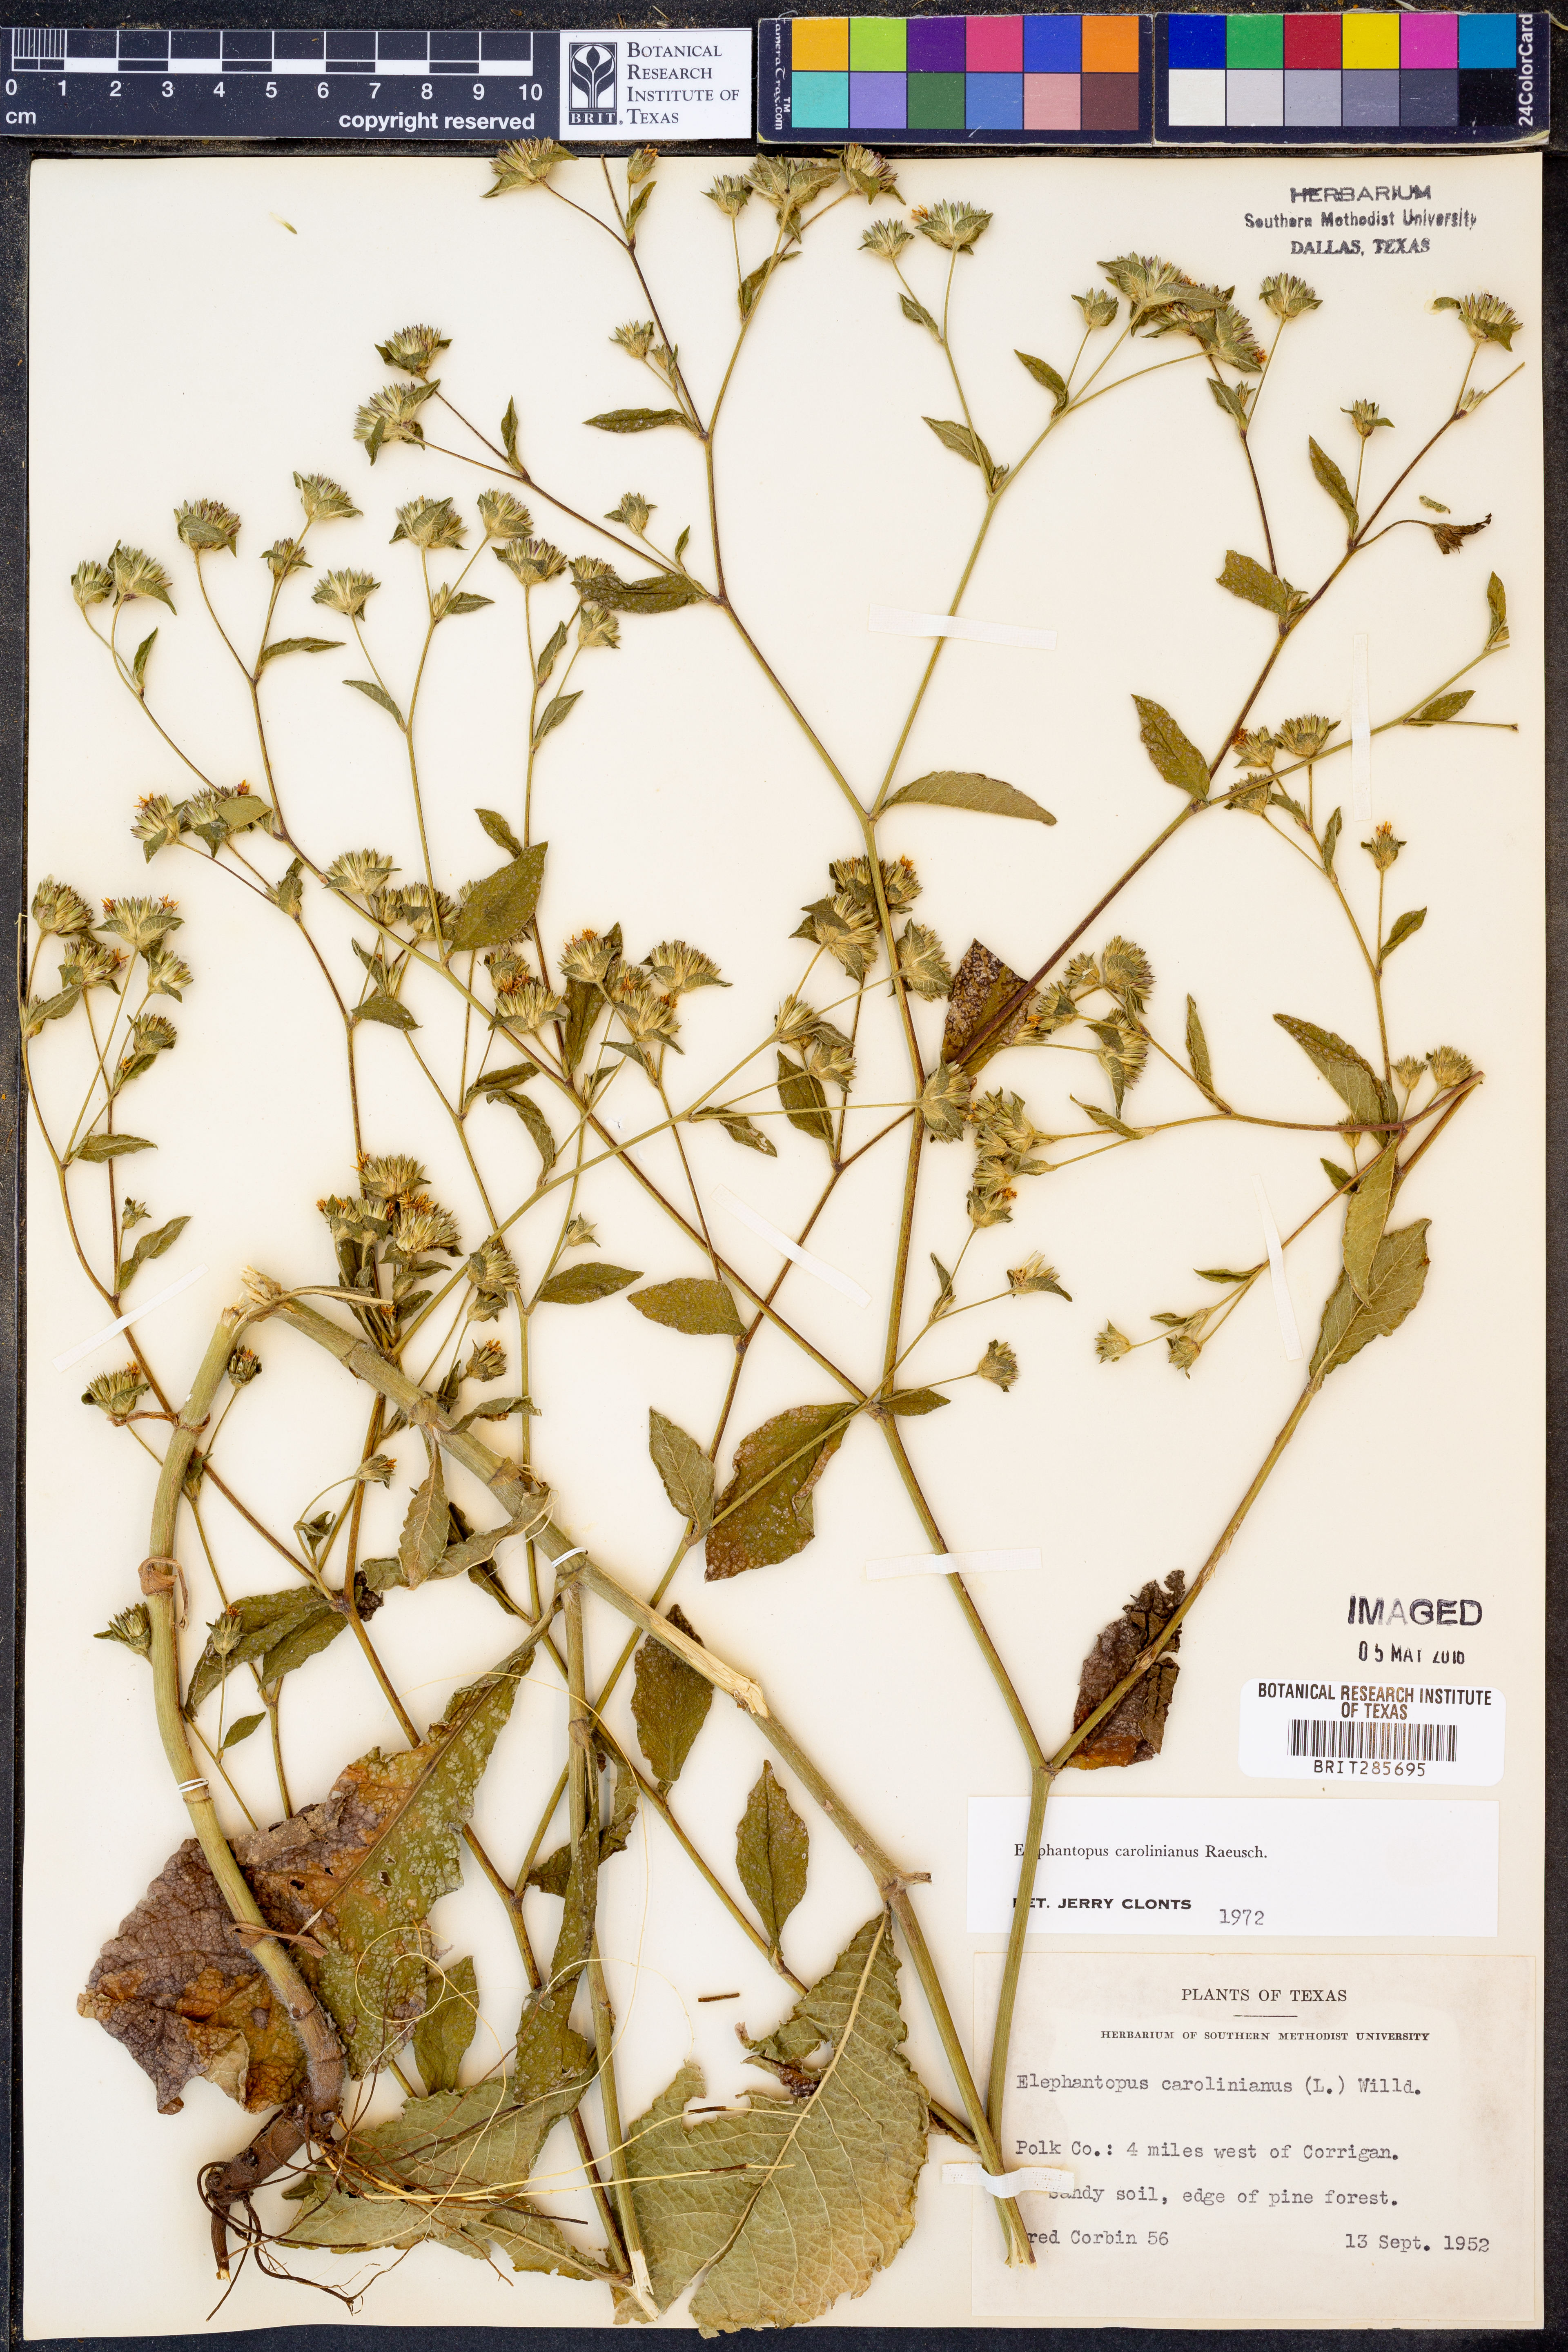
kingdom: Plantae
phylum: Tracheophyta
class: Magnoliopsida
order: Asterales
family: Asteraceae
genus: Elephantopus
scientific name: Elephantopus carolinianus
